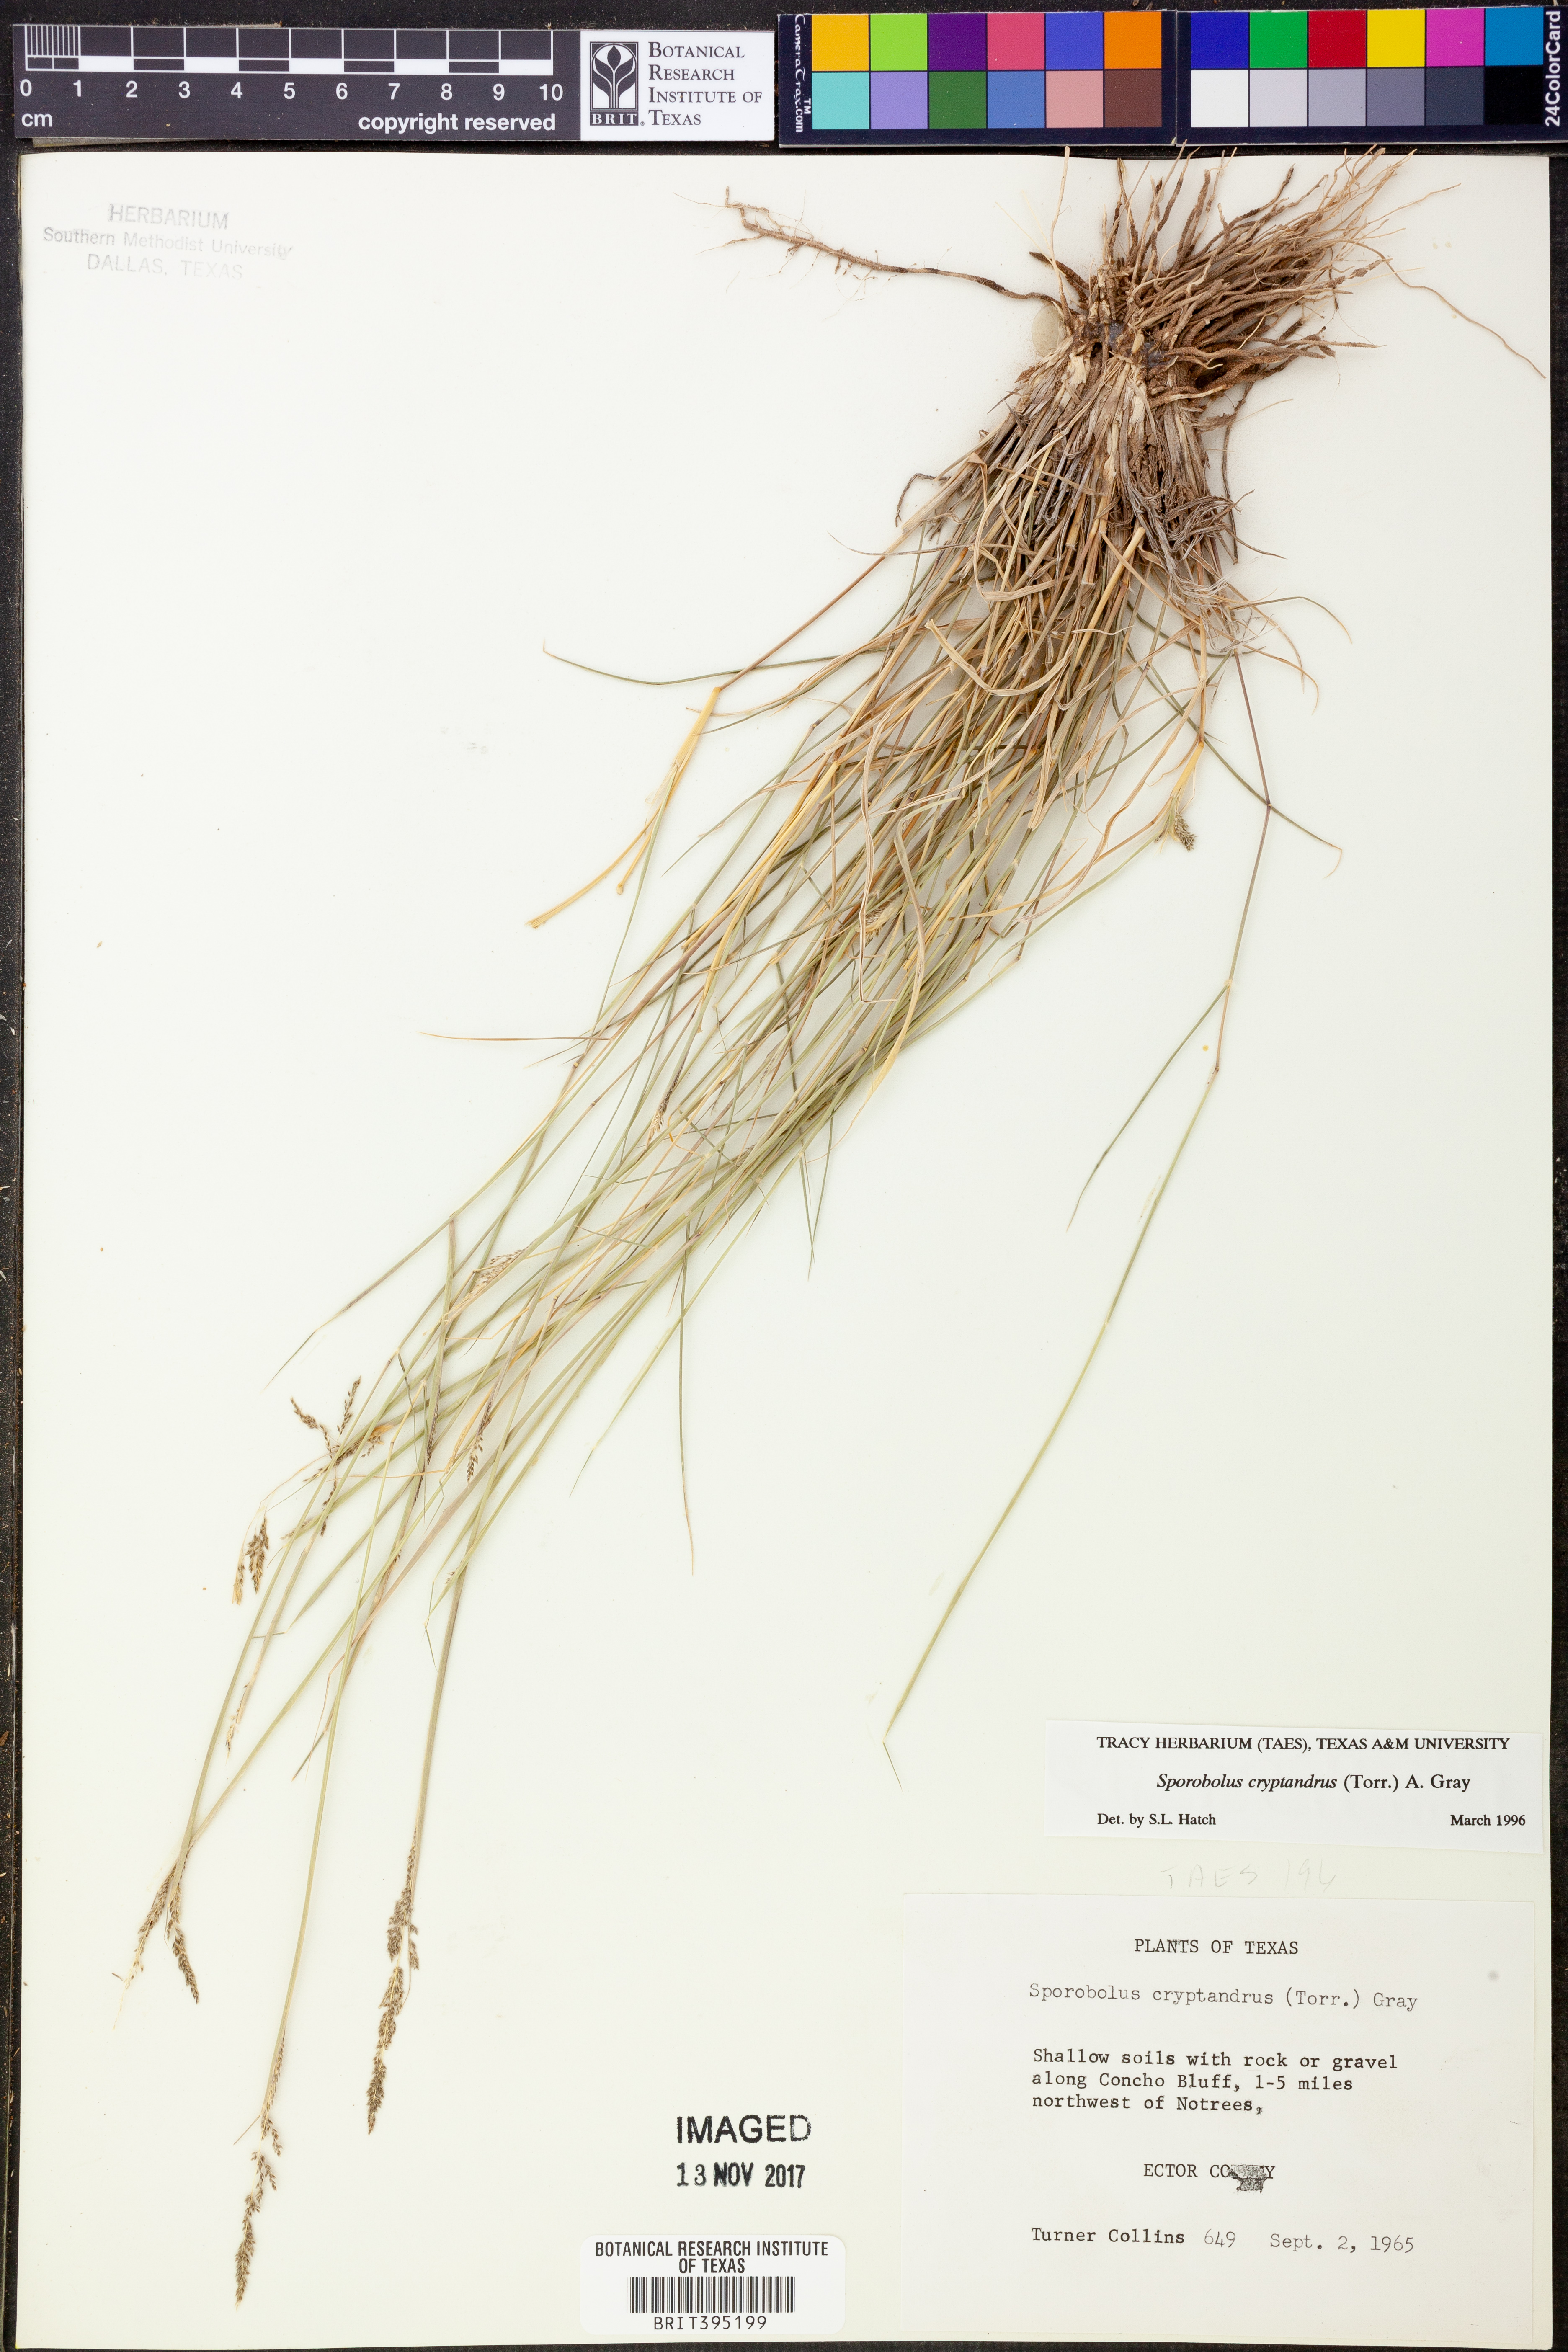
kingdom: Plantae
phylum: Tracheophyta
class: Liliopsida
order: Poales
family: Poaceae
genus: Sporobolus
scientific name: Sporobolus cryptandrus
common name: Sand dropseed
